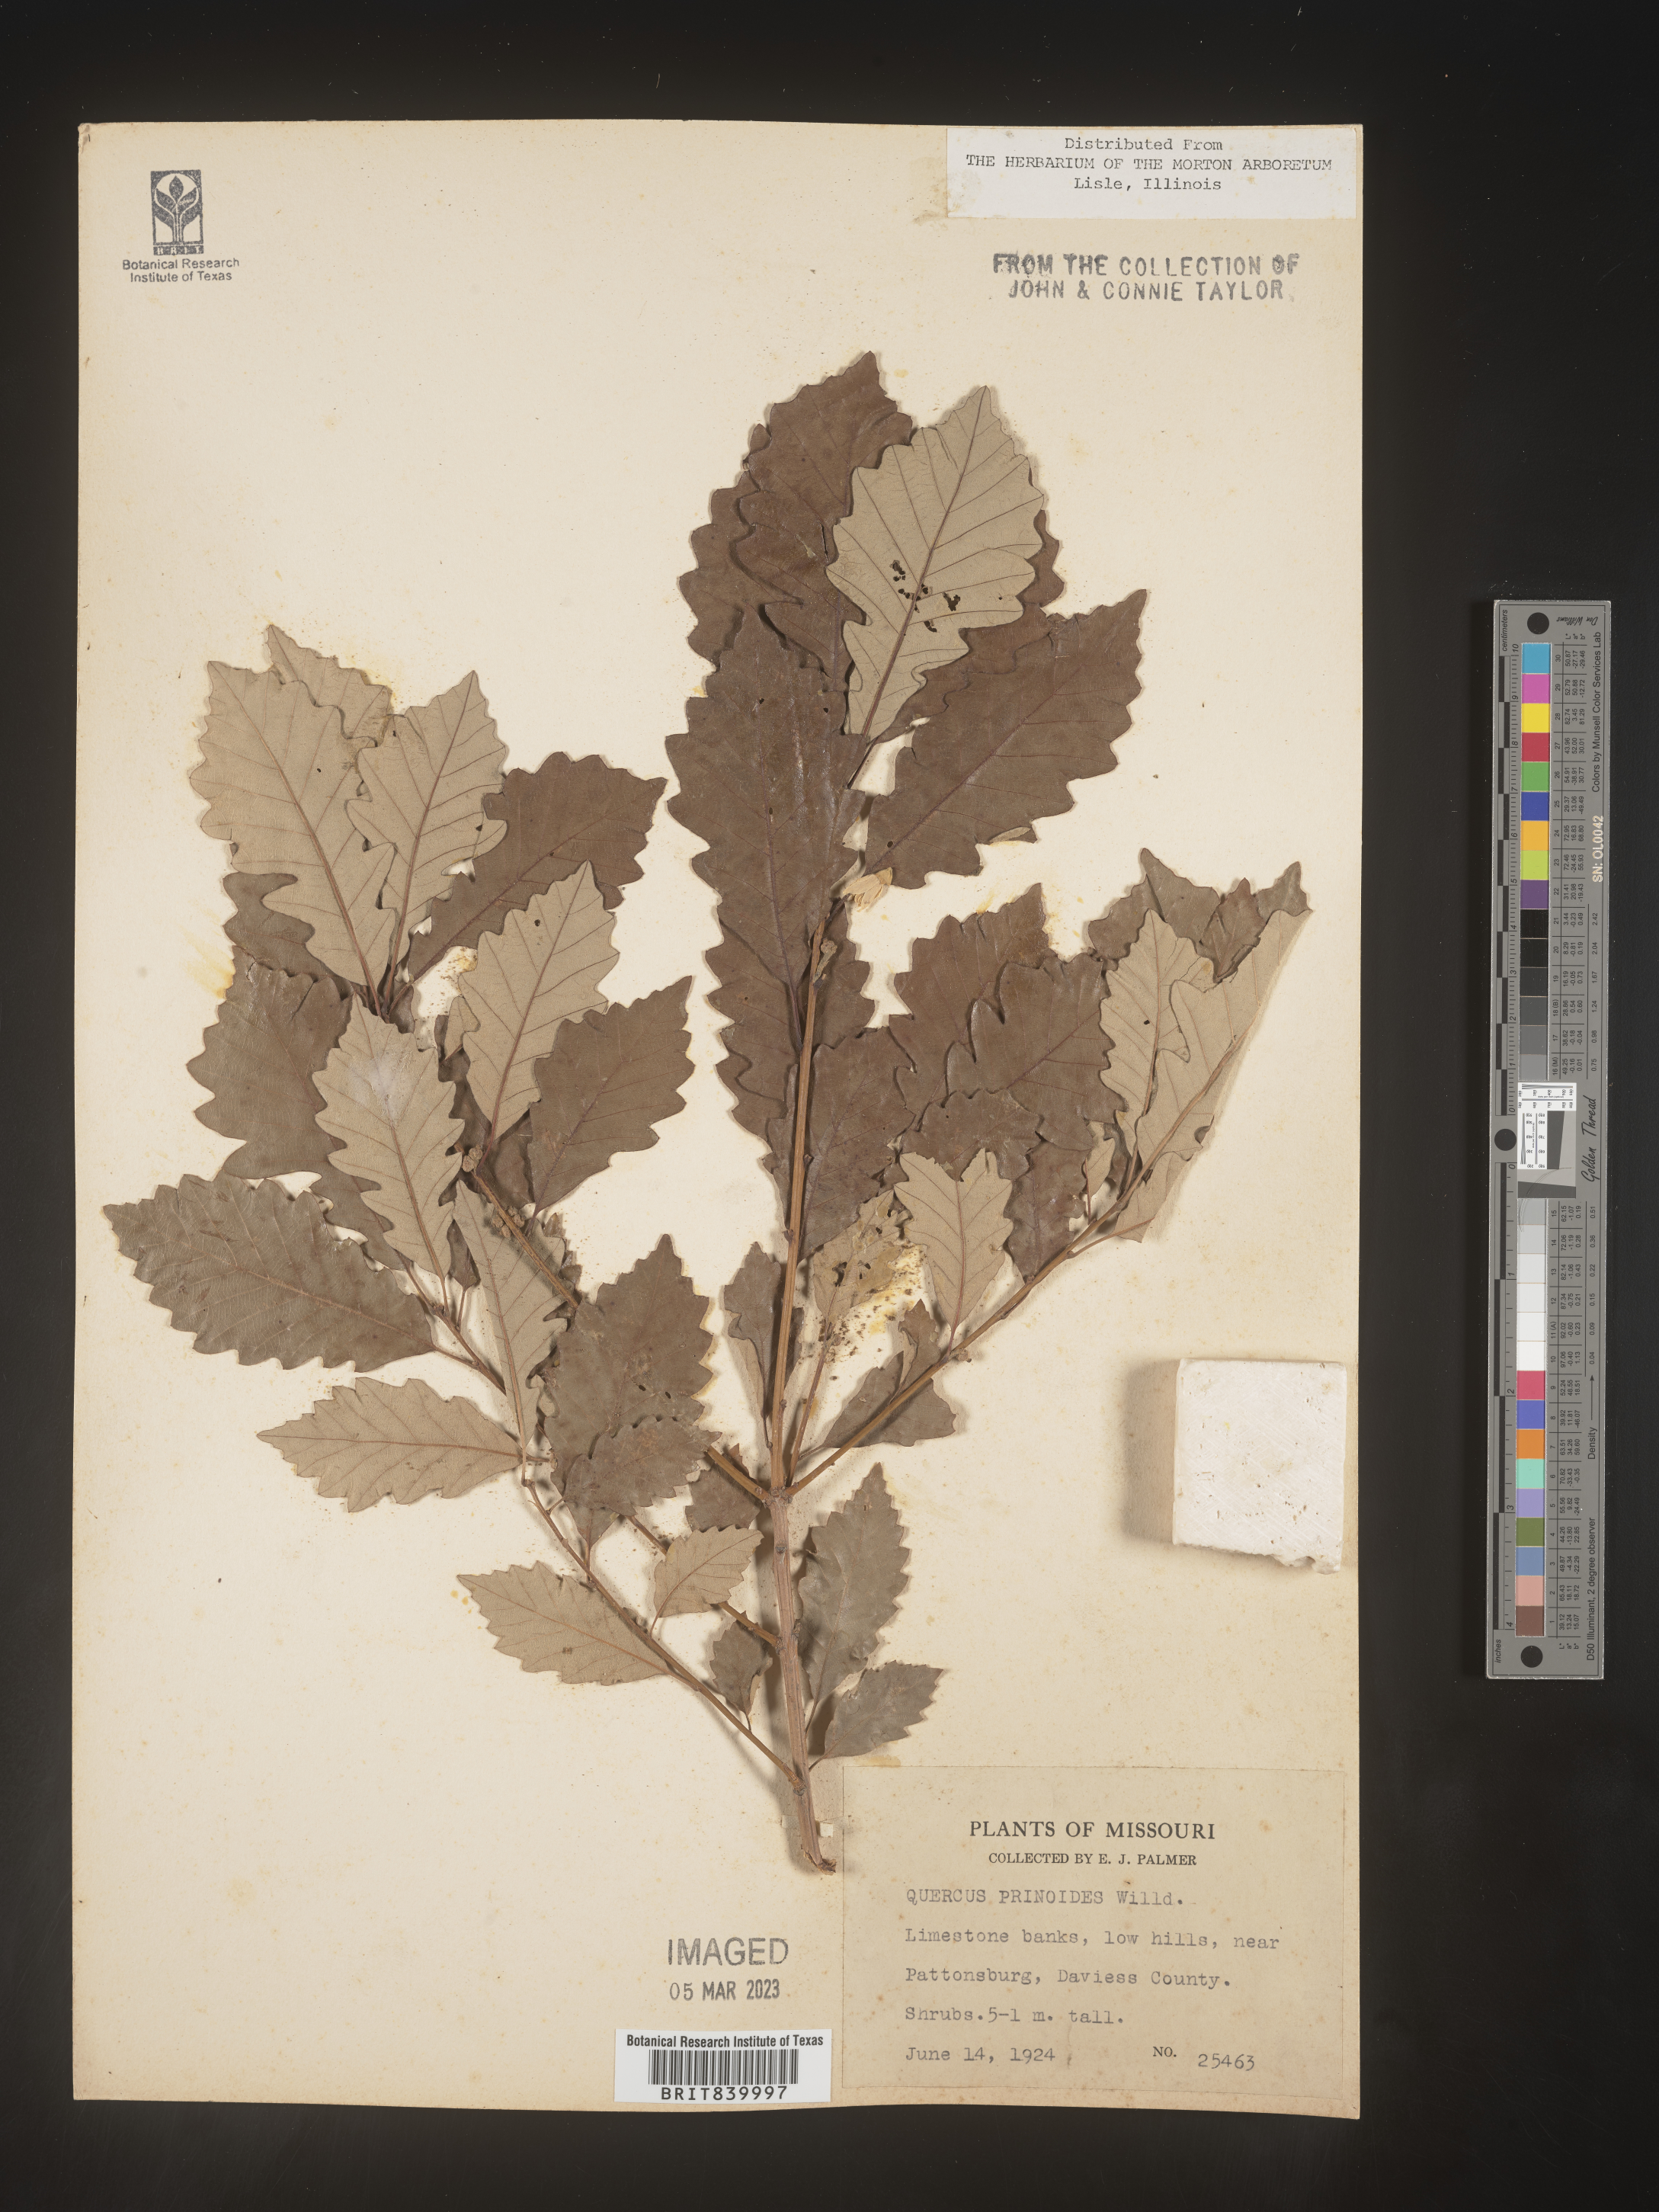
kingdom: Plantae
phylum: Tracheophyta
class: Magnoliopsida
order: Fagales
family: Fagaceae
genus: Quercus
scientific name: Quercus prinoides
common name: Dwarf chinkapin oak
